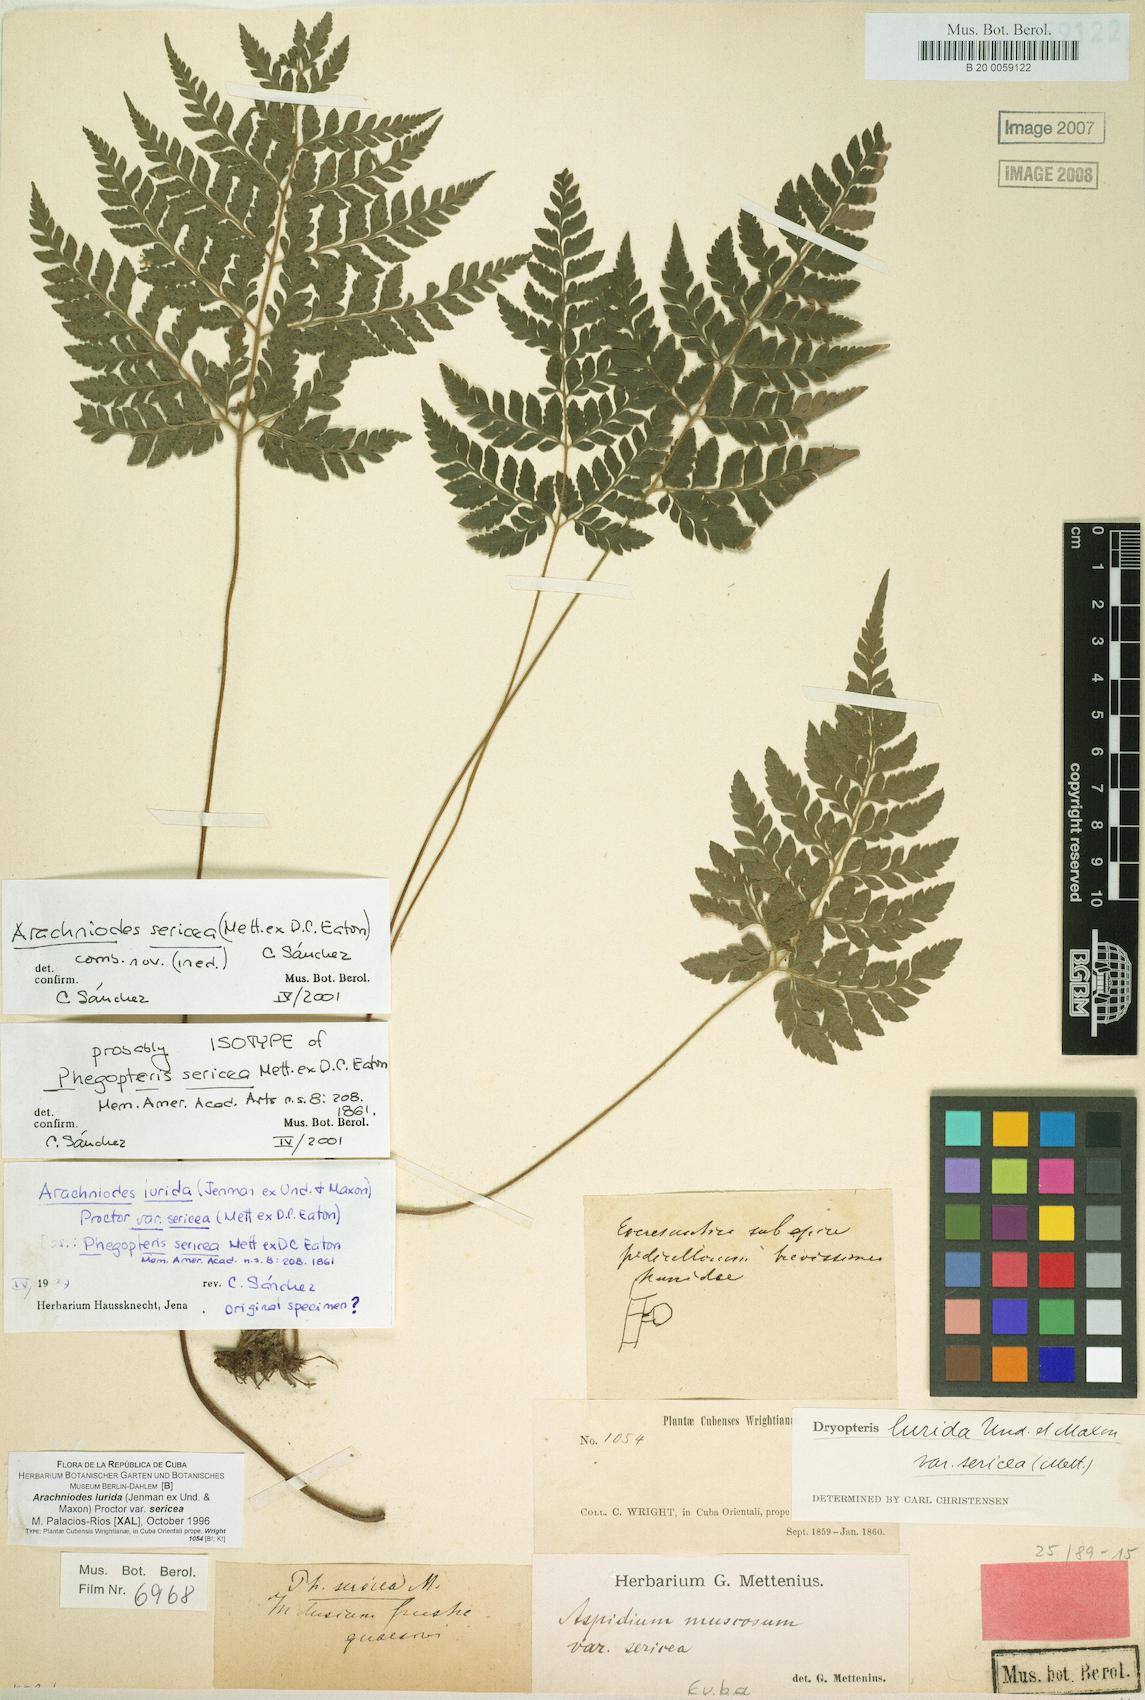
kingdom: Plantae
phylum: Tracheophyta
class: Polypodiopsida
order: Polypodiales
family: Dryopteridaceae
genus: Polystichopsis
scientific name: Polystichopsis sericea
